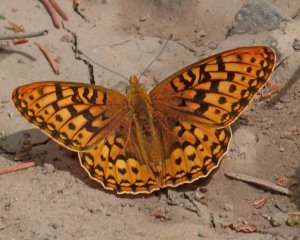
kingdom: Animalia
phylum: Arthropoda
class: Insecta
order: Lepidoptera
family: Nymphalidae
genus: Speyeria
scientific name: Speyeria zerene
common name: Zerene Fritillary
